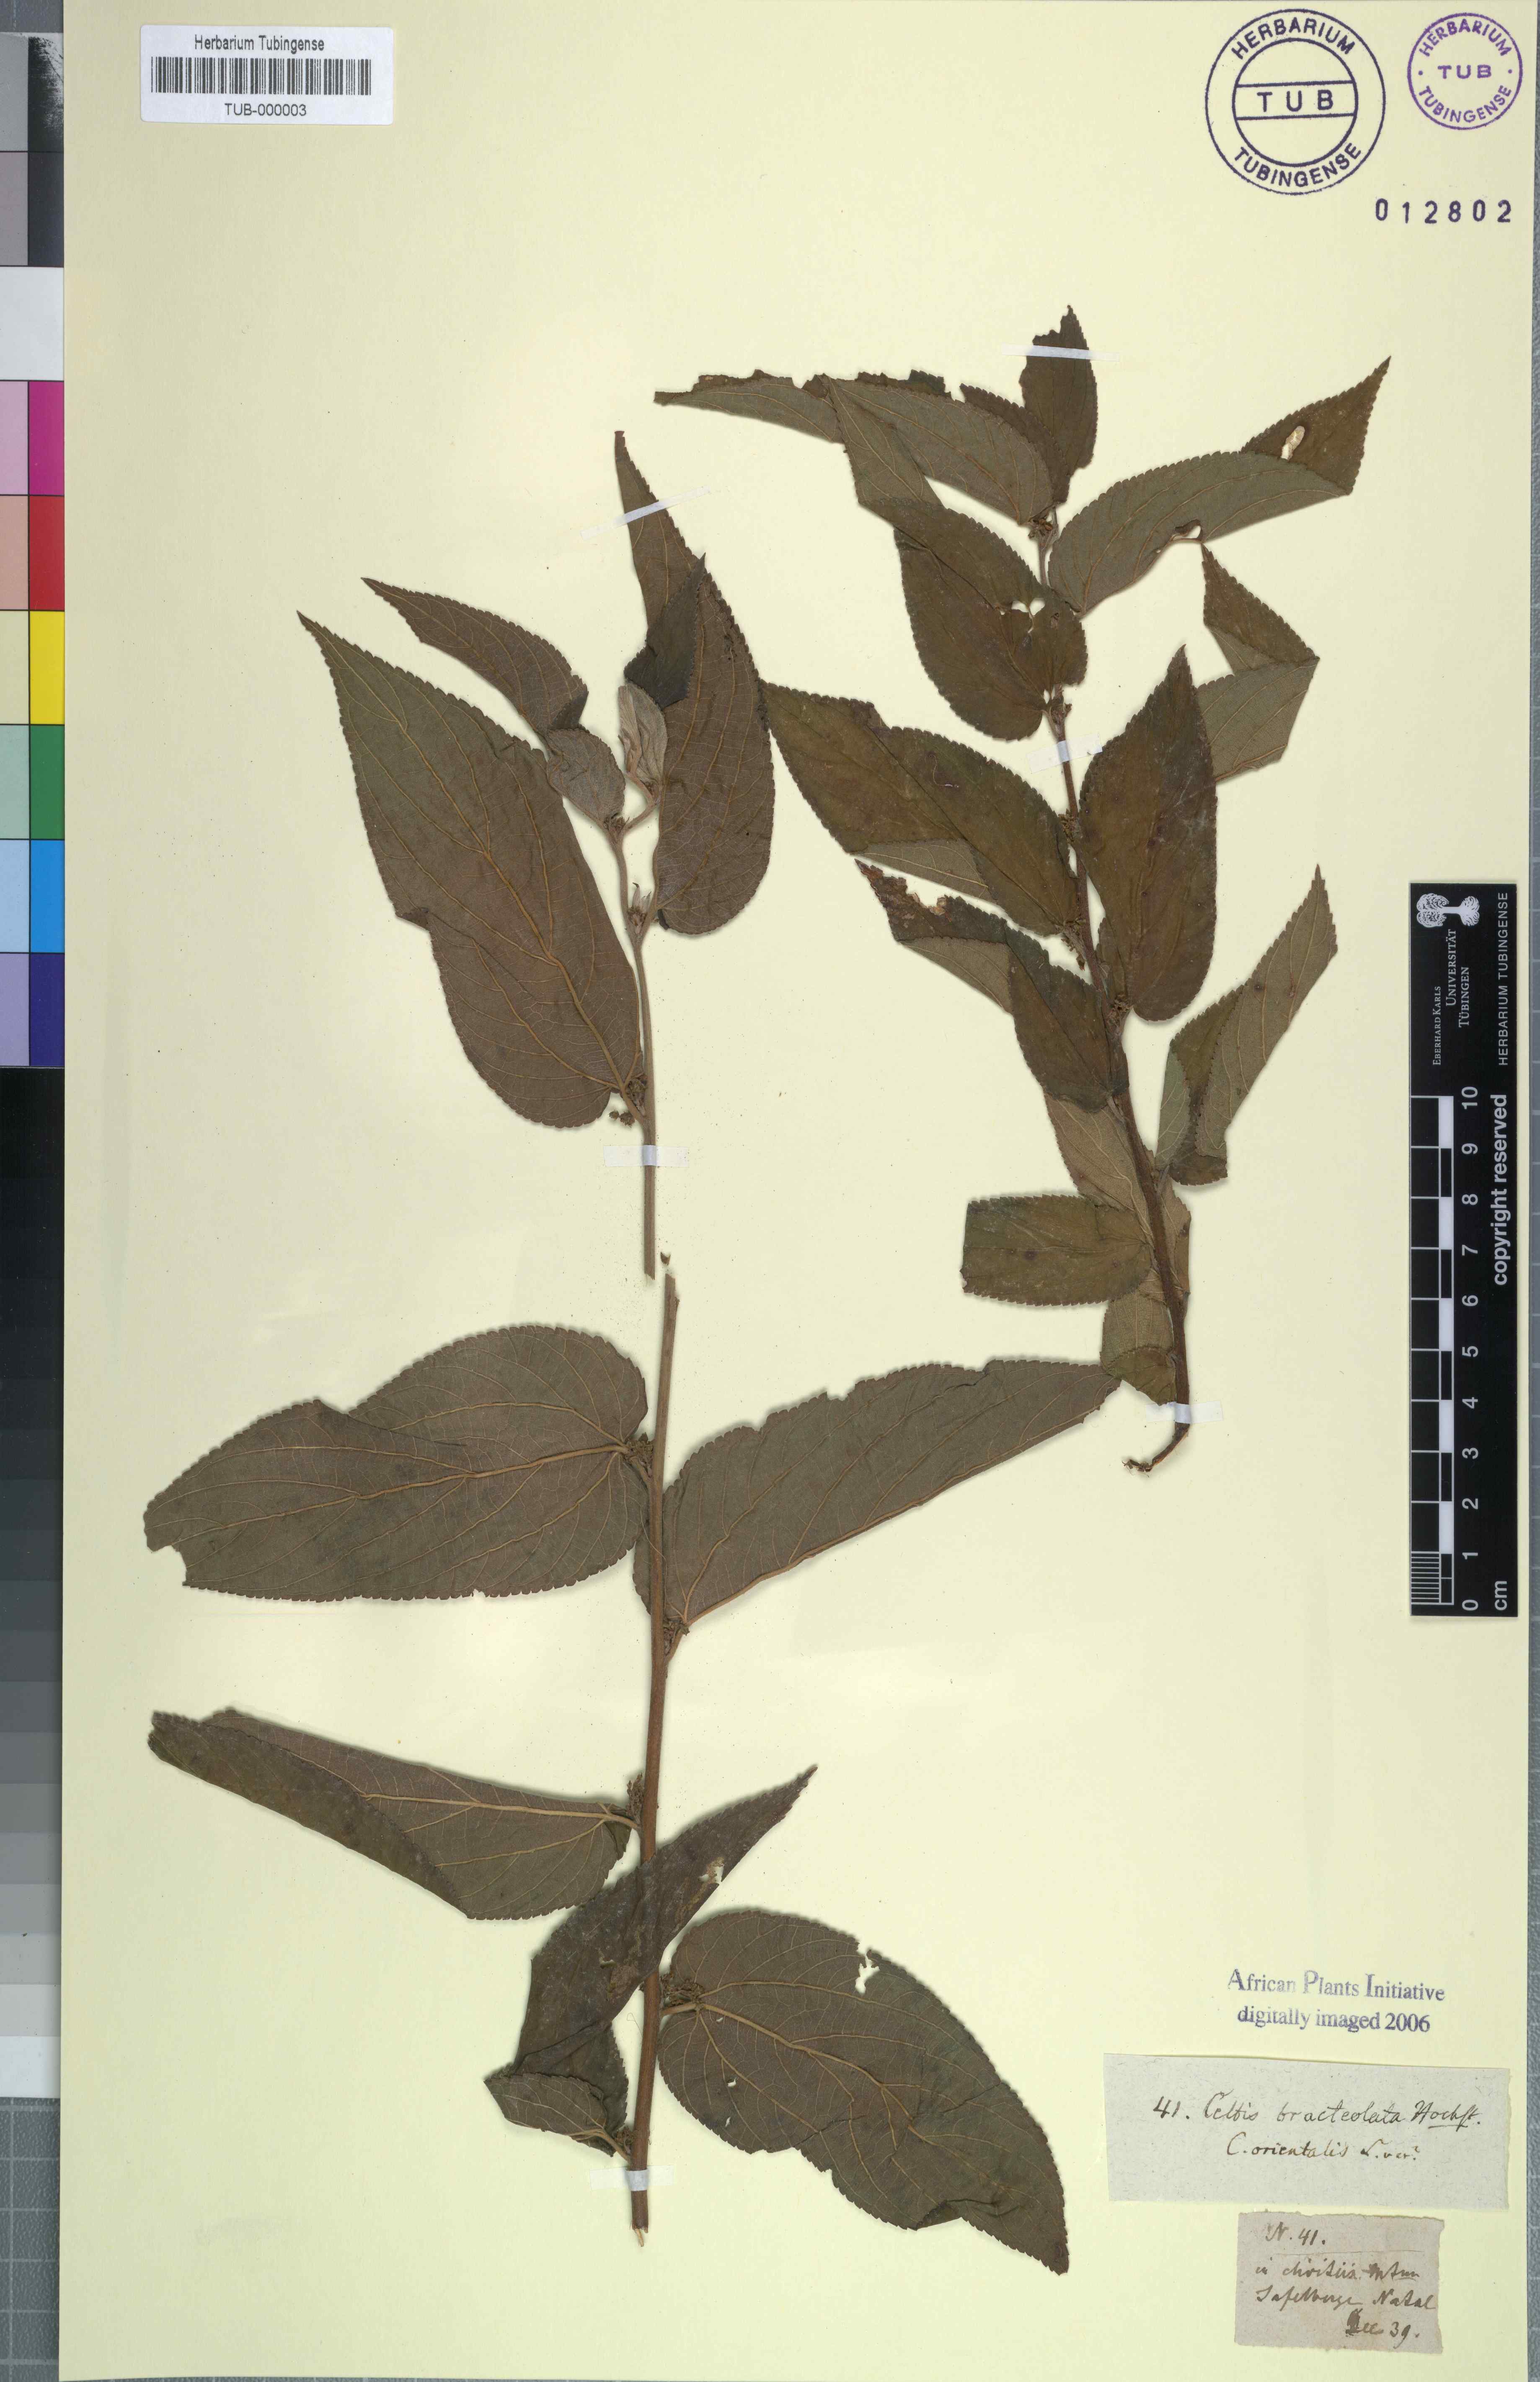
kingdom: Plantae
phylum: Tracheophyta
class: Magnoliopsida
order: Rosales
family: Cannabaceae
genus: Trema
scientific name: Trema orientale
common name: Indian charcoal tree
